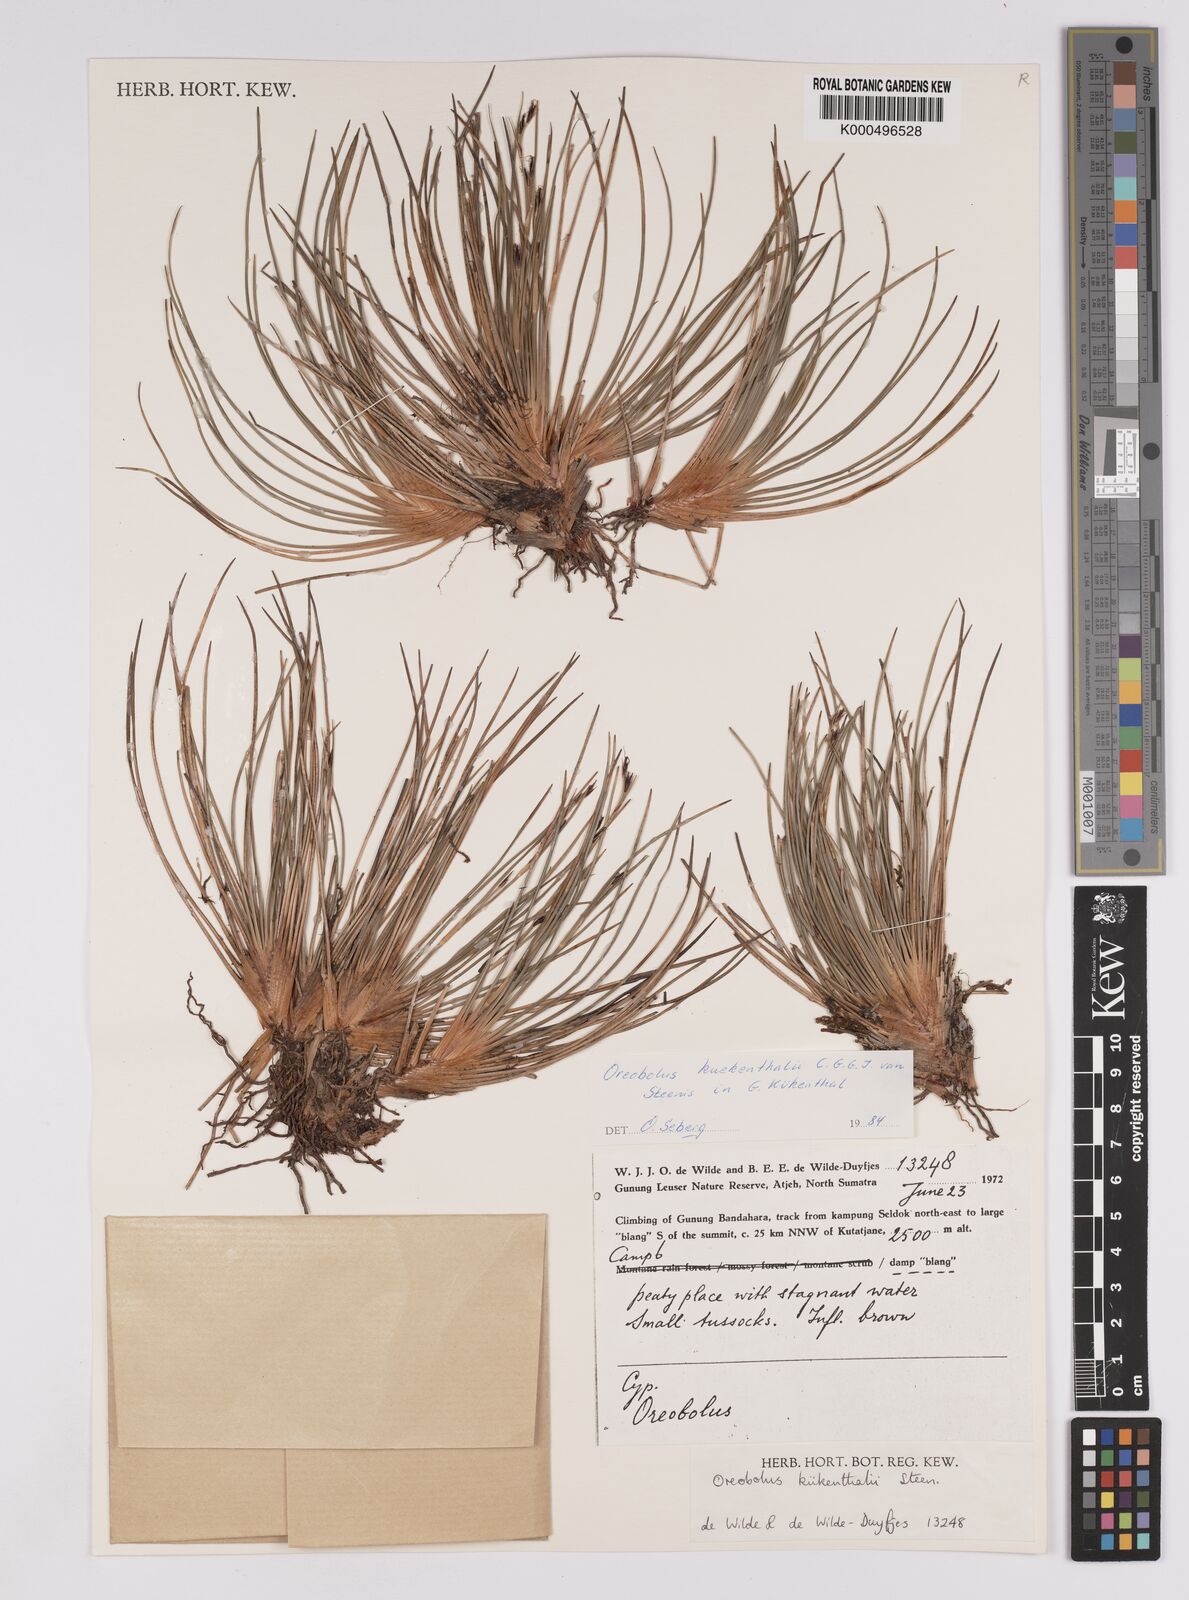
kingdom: Plantae
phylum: Tracheophyta
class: Liliopsida
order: Poales
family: Cyperaceae
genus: Oreobolus
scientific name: Oreobolus
